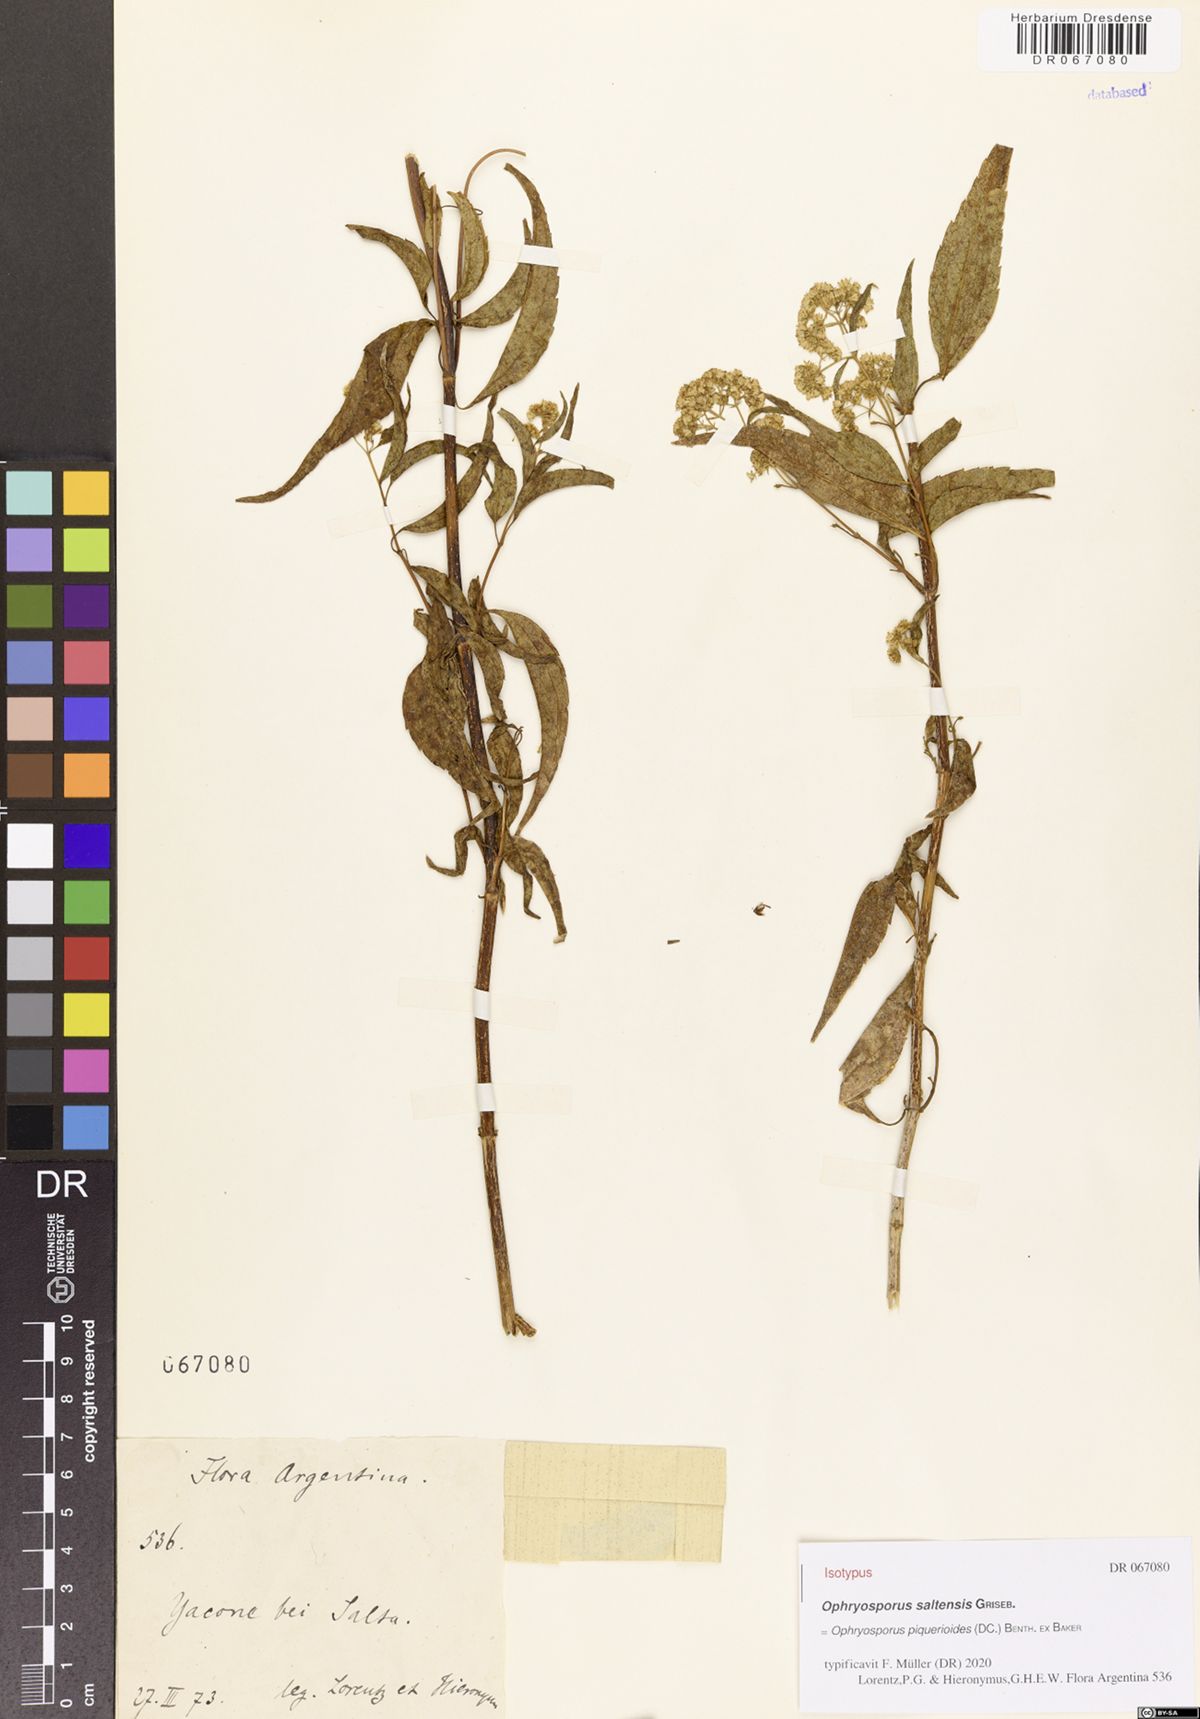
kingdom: Plantae
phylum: Tracheophyta
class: Magnoliopsida
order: Asterales
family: Asteraceae
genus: Ophryosporus
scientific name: Ophryosporus piquerioides
